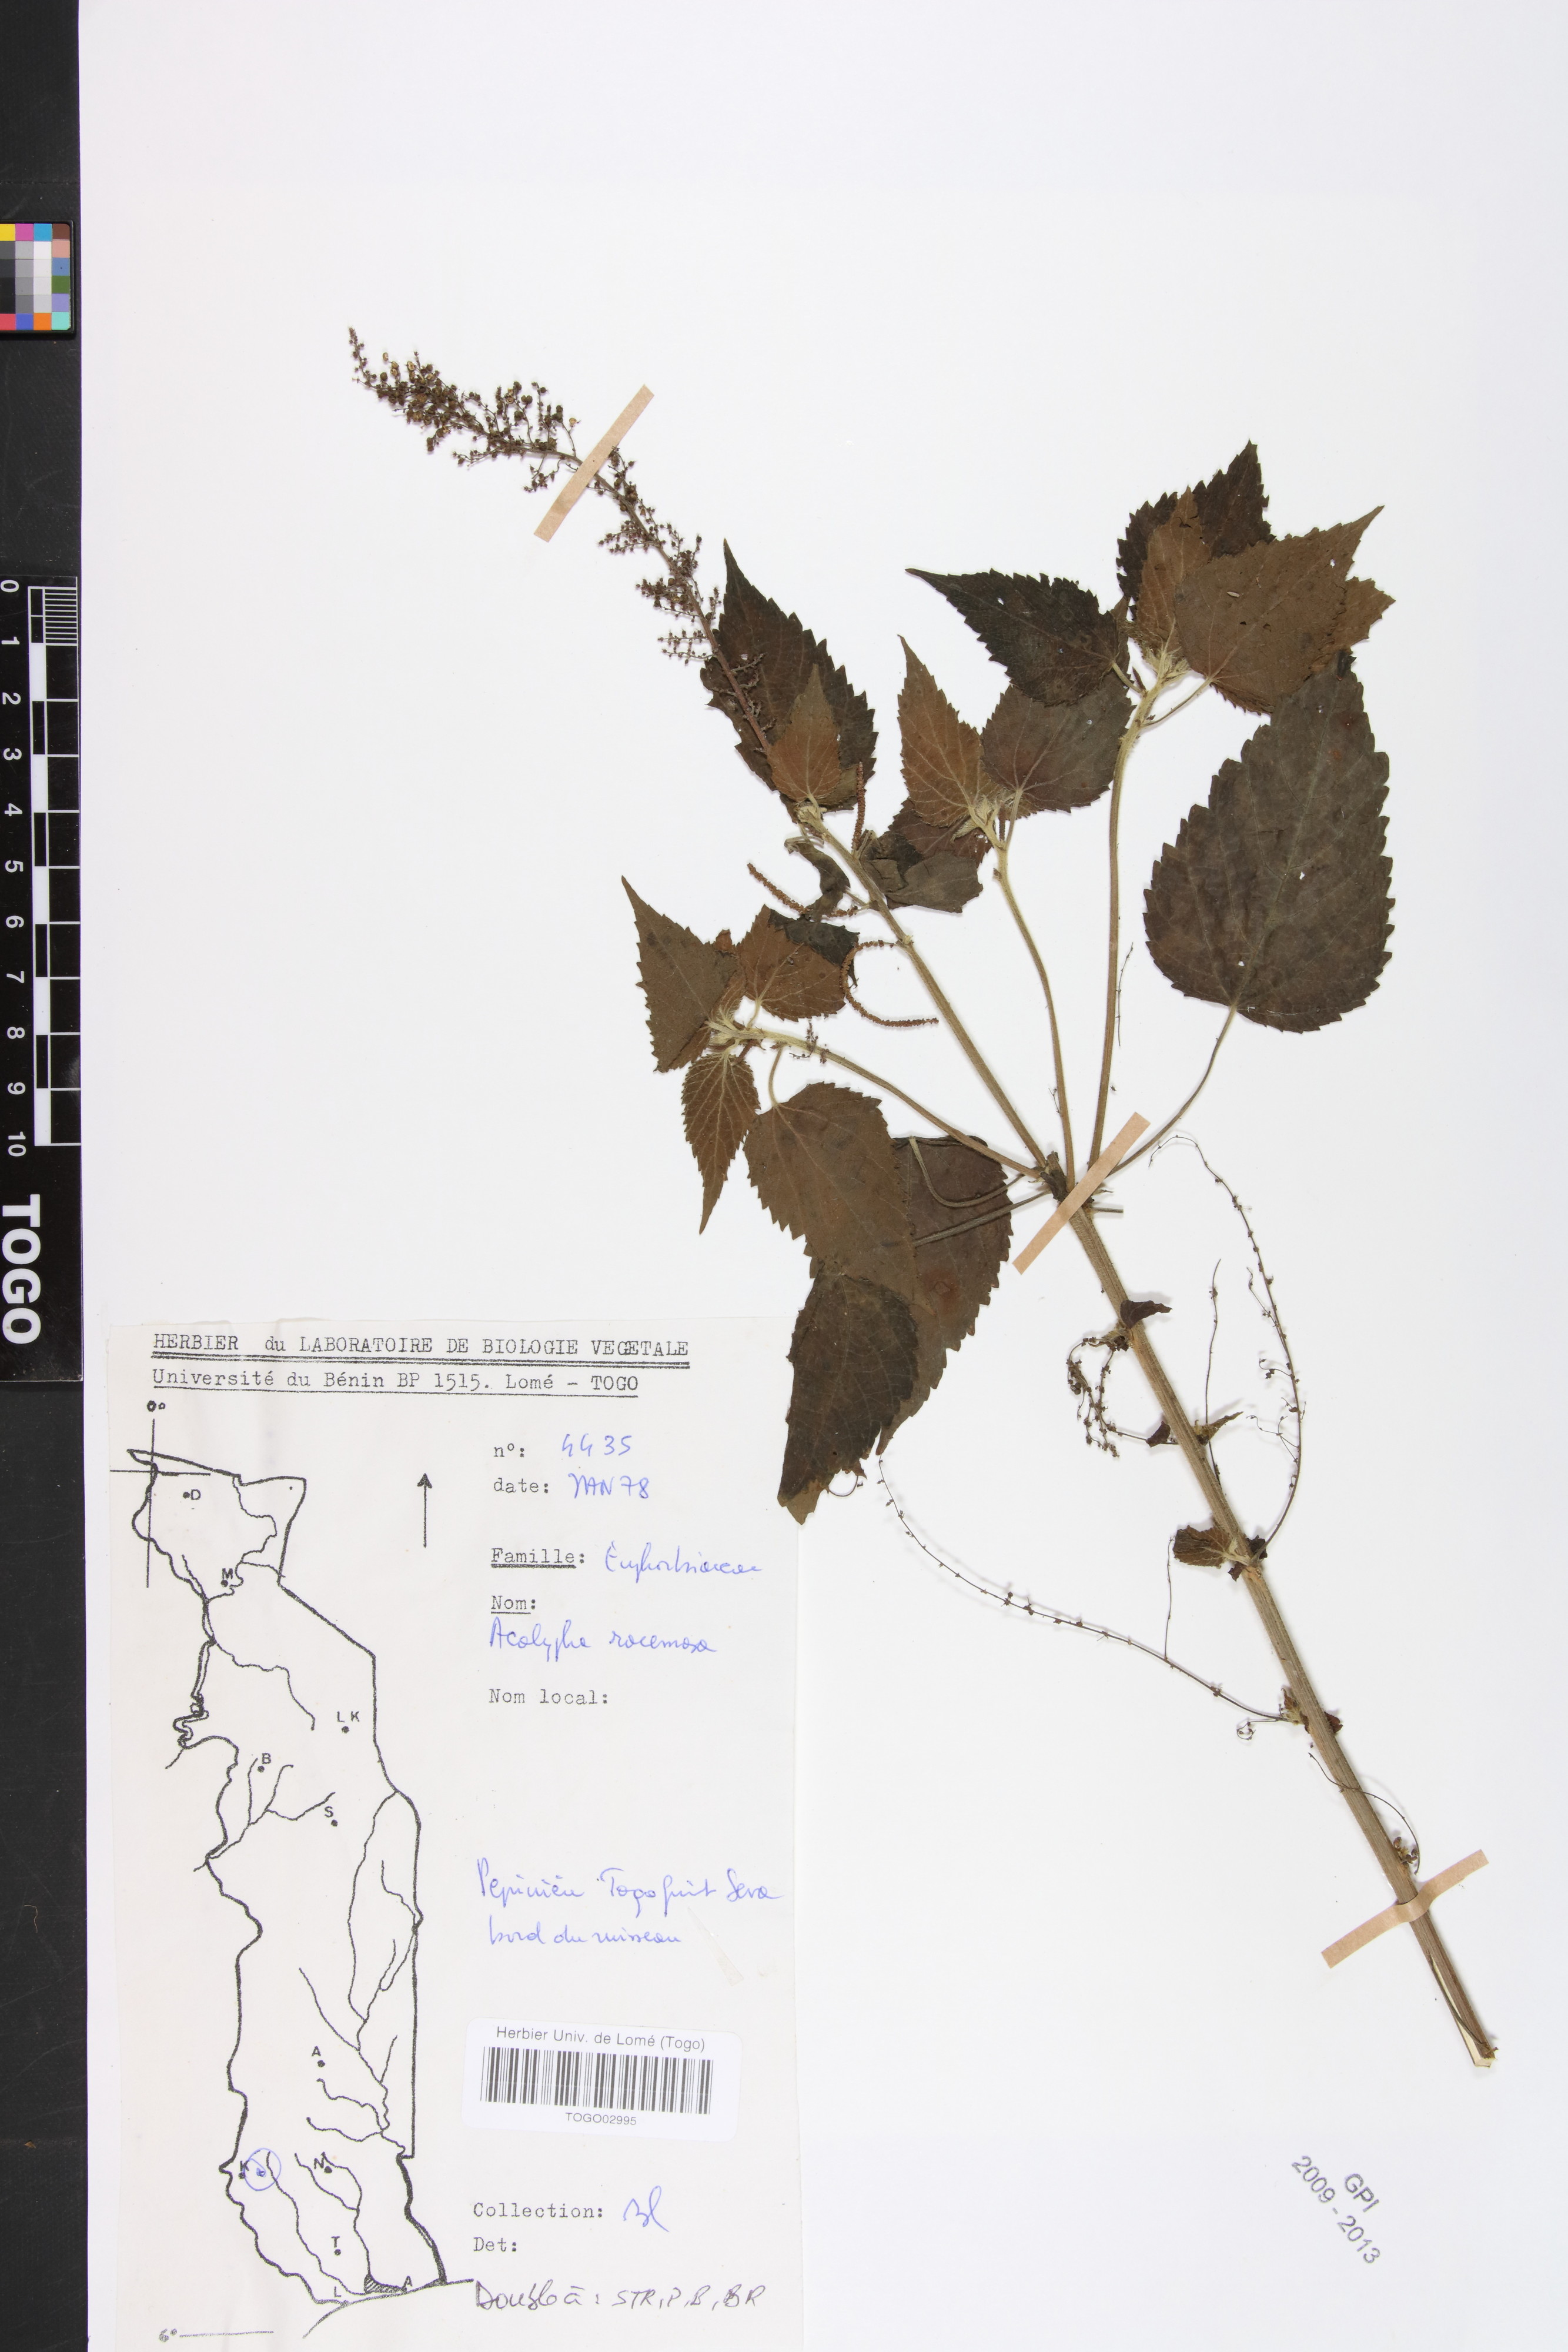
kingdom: Plantae
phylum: Tracheophyta
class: Magnoliopsida
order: Malpighiales
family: Euphorbiaceae
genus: Acalypha
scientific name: Acalypha paniculata
